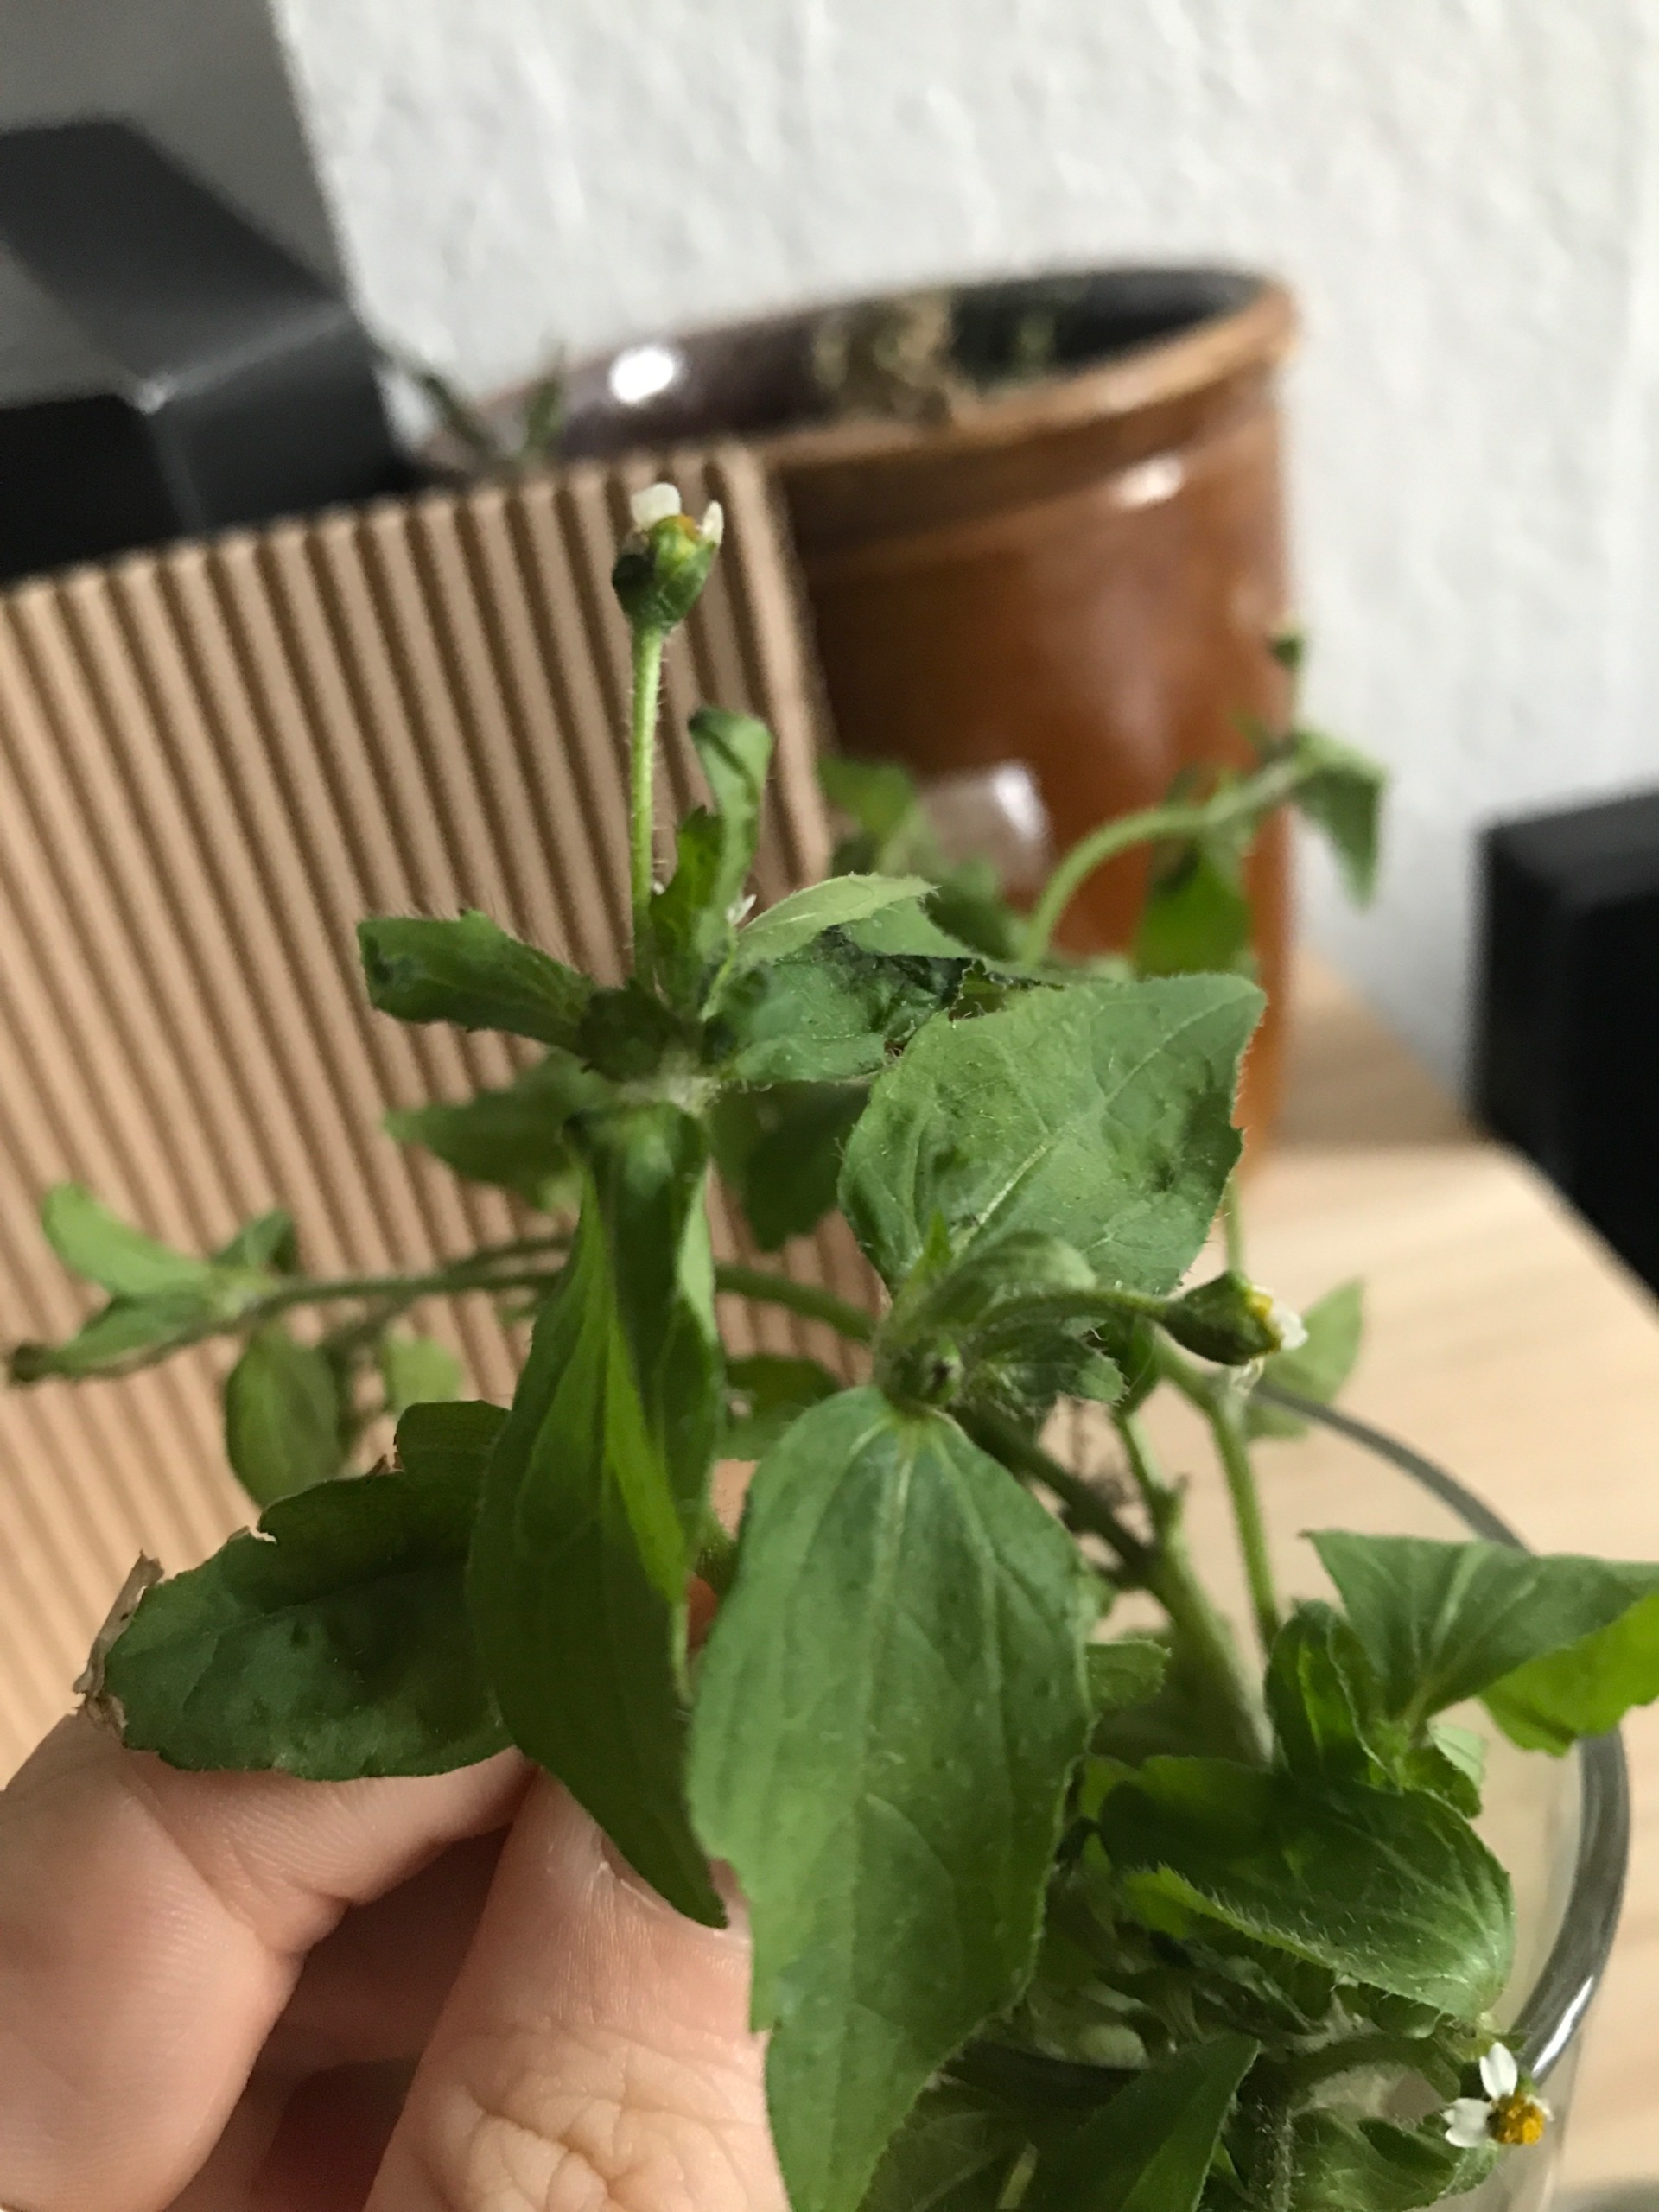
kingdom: Plantae
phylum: Tracheophyta
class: Magnoliopsida
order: Asterales
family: Asteraceae
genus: Galinsoga
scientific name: Galinsoga quadriradiata
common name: Kirtel-kortstråle
